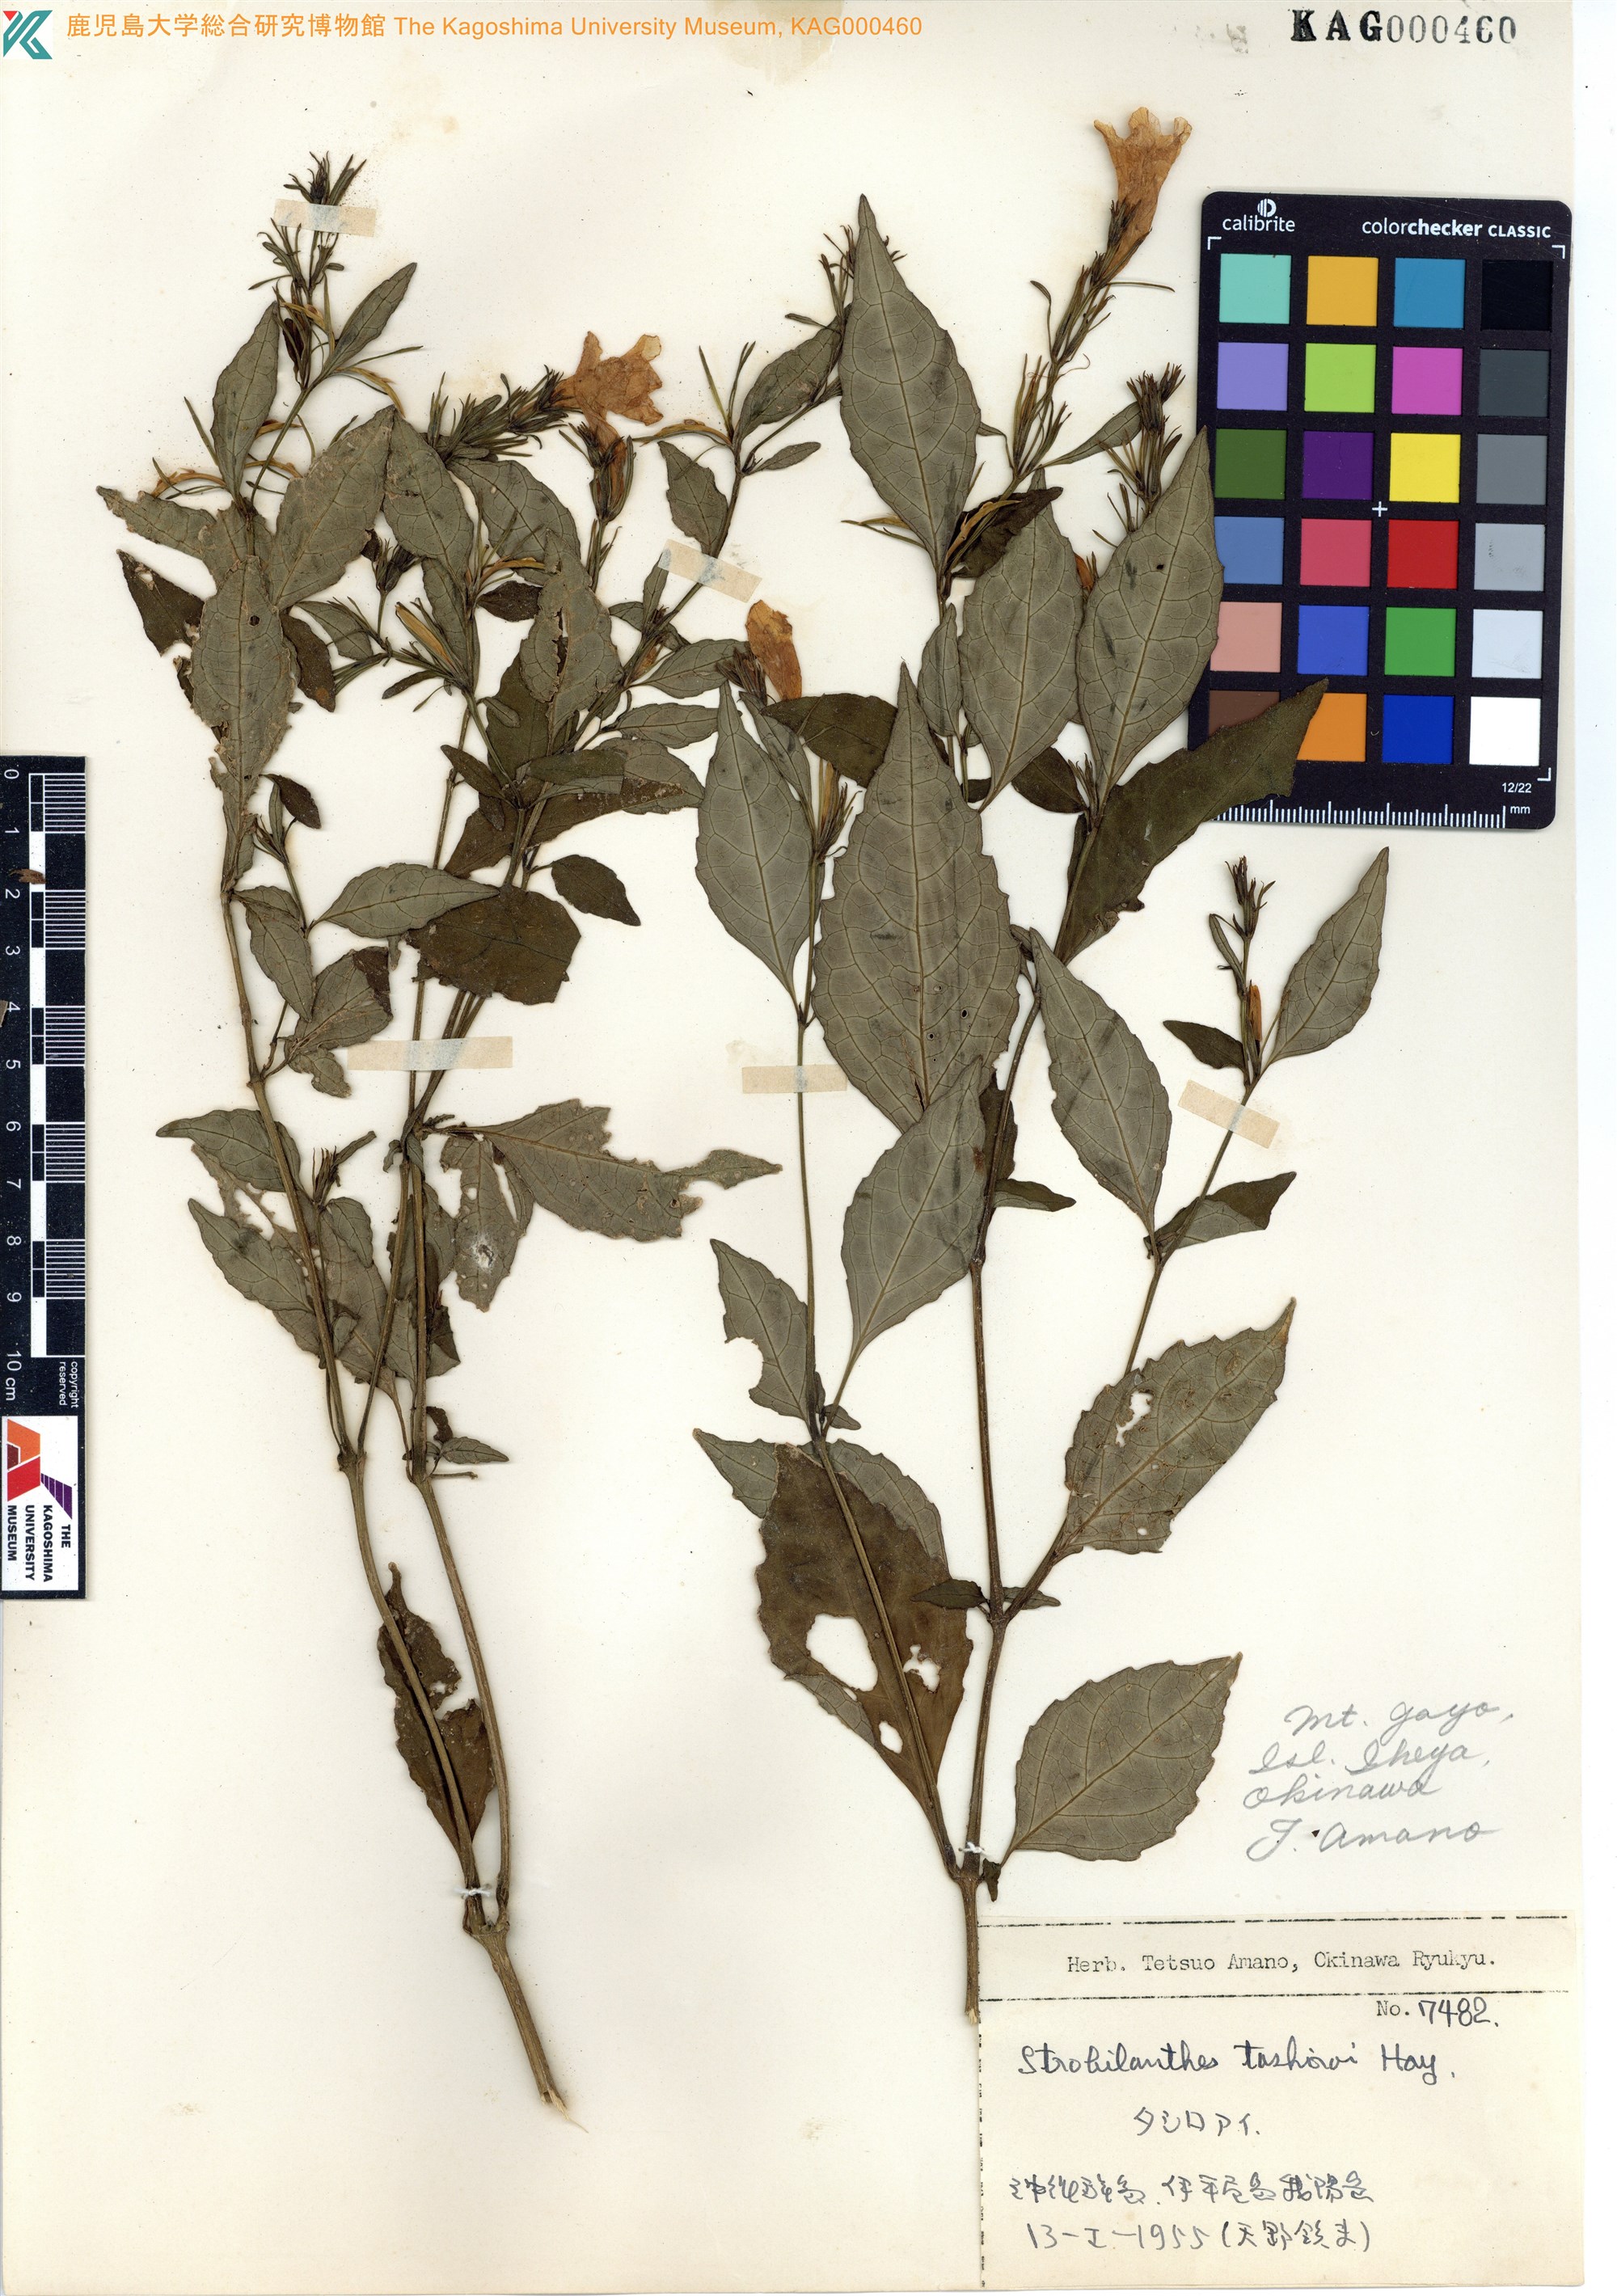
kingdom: Plantae
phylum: Tracheophyta
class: Magnoliopsida
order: Lamiales
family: Acanthaceae
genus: Strobilanthes
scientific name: Strobilanthes flexicaulis
